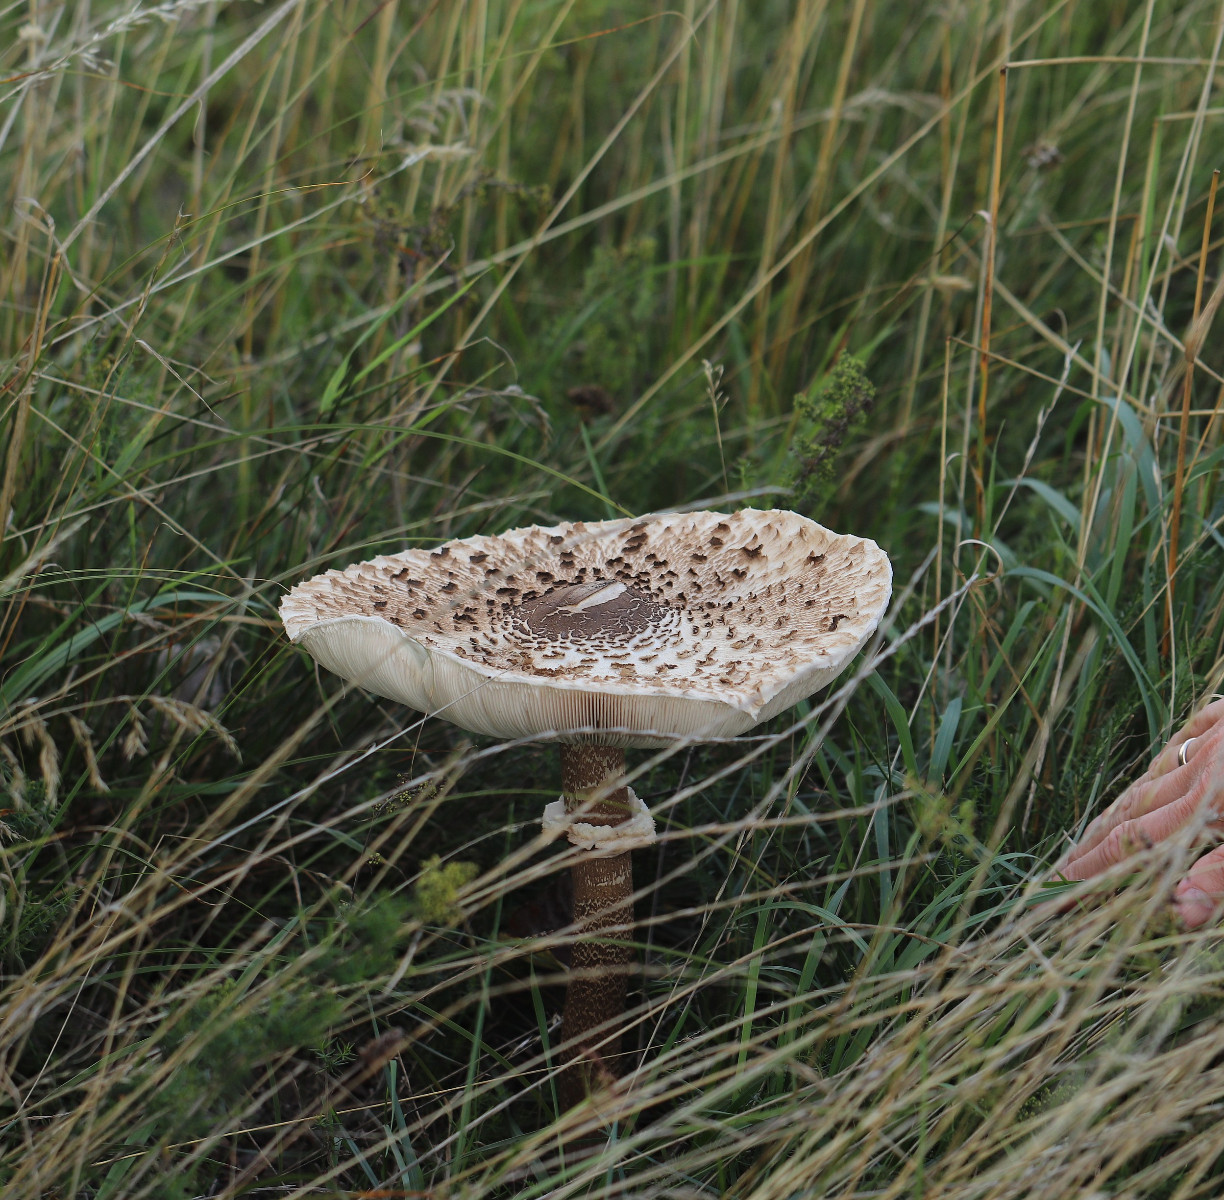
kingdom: Fungi
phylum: Basidiomycota
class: Agaricomycetes
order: Agaricales
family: Agaricaceae
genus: Macrolepiota
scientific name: Macrolepiota procera
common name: stor kæmpeparasolhat
